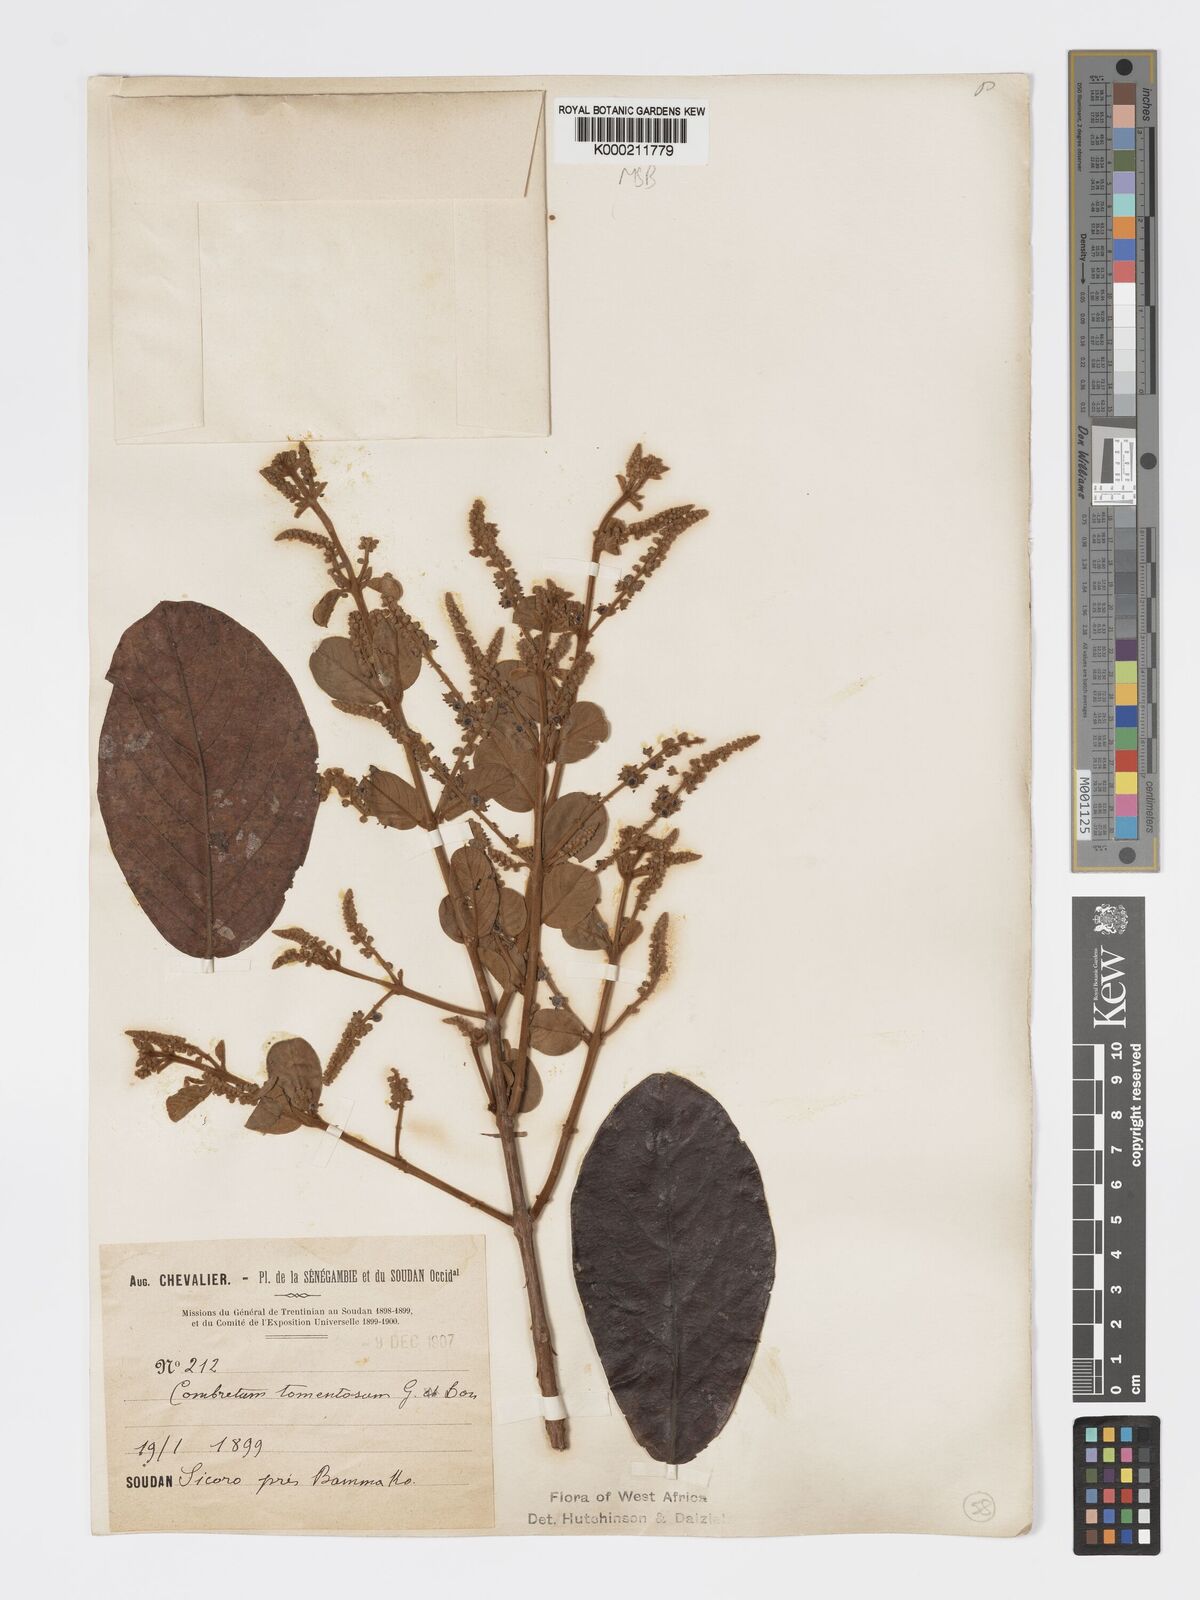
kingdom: Plantae
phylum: Tracheophyta
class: Magnoliopsida
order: Myrtales
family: Combretaceae
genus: Combretum
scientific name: Combretum tomentosum
